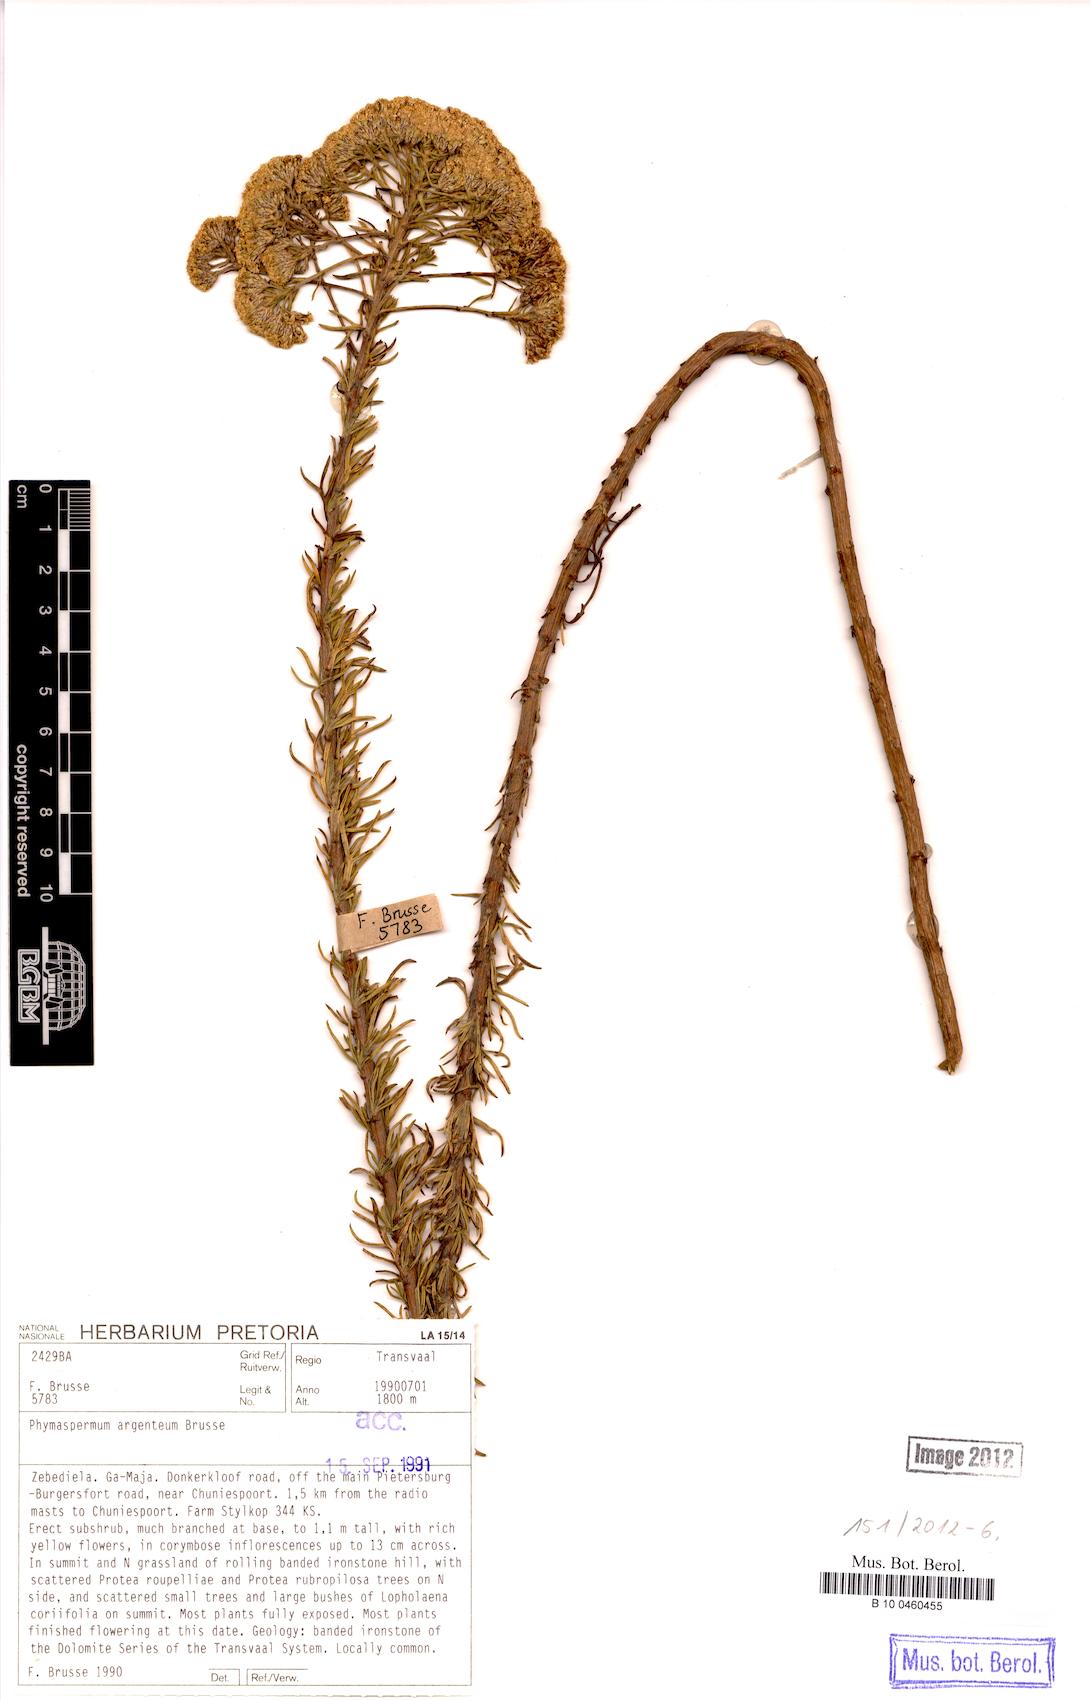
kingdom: Plantae
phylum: Tracheophyta
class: Magnoliopsida
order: Asterales
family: Asteraceae
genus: Phymaspermum
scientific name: Phymaspermum argenteum
